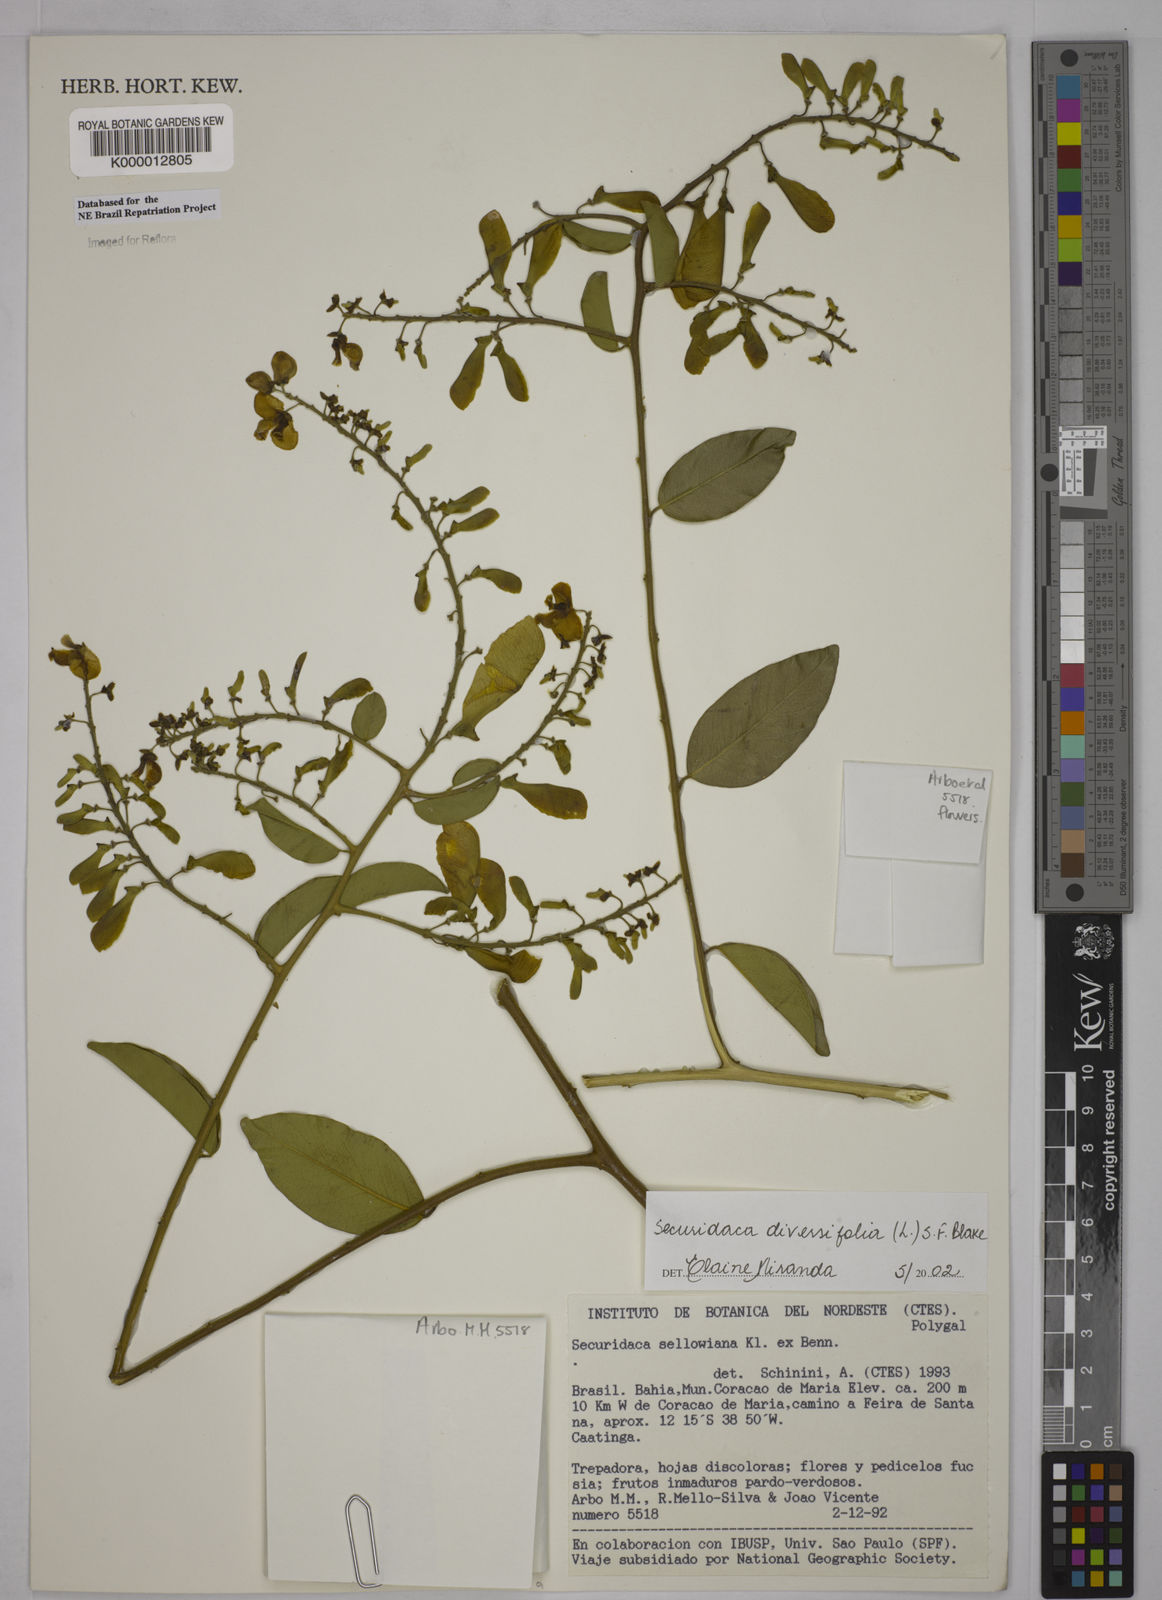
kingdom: Plantae
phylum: Tracheophyta
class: Magnoliopsida
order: Fabales
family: Polygalaceae
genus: Securidaca
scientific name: Securidaca diversifolia
